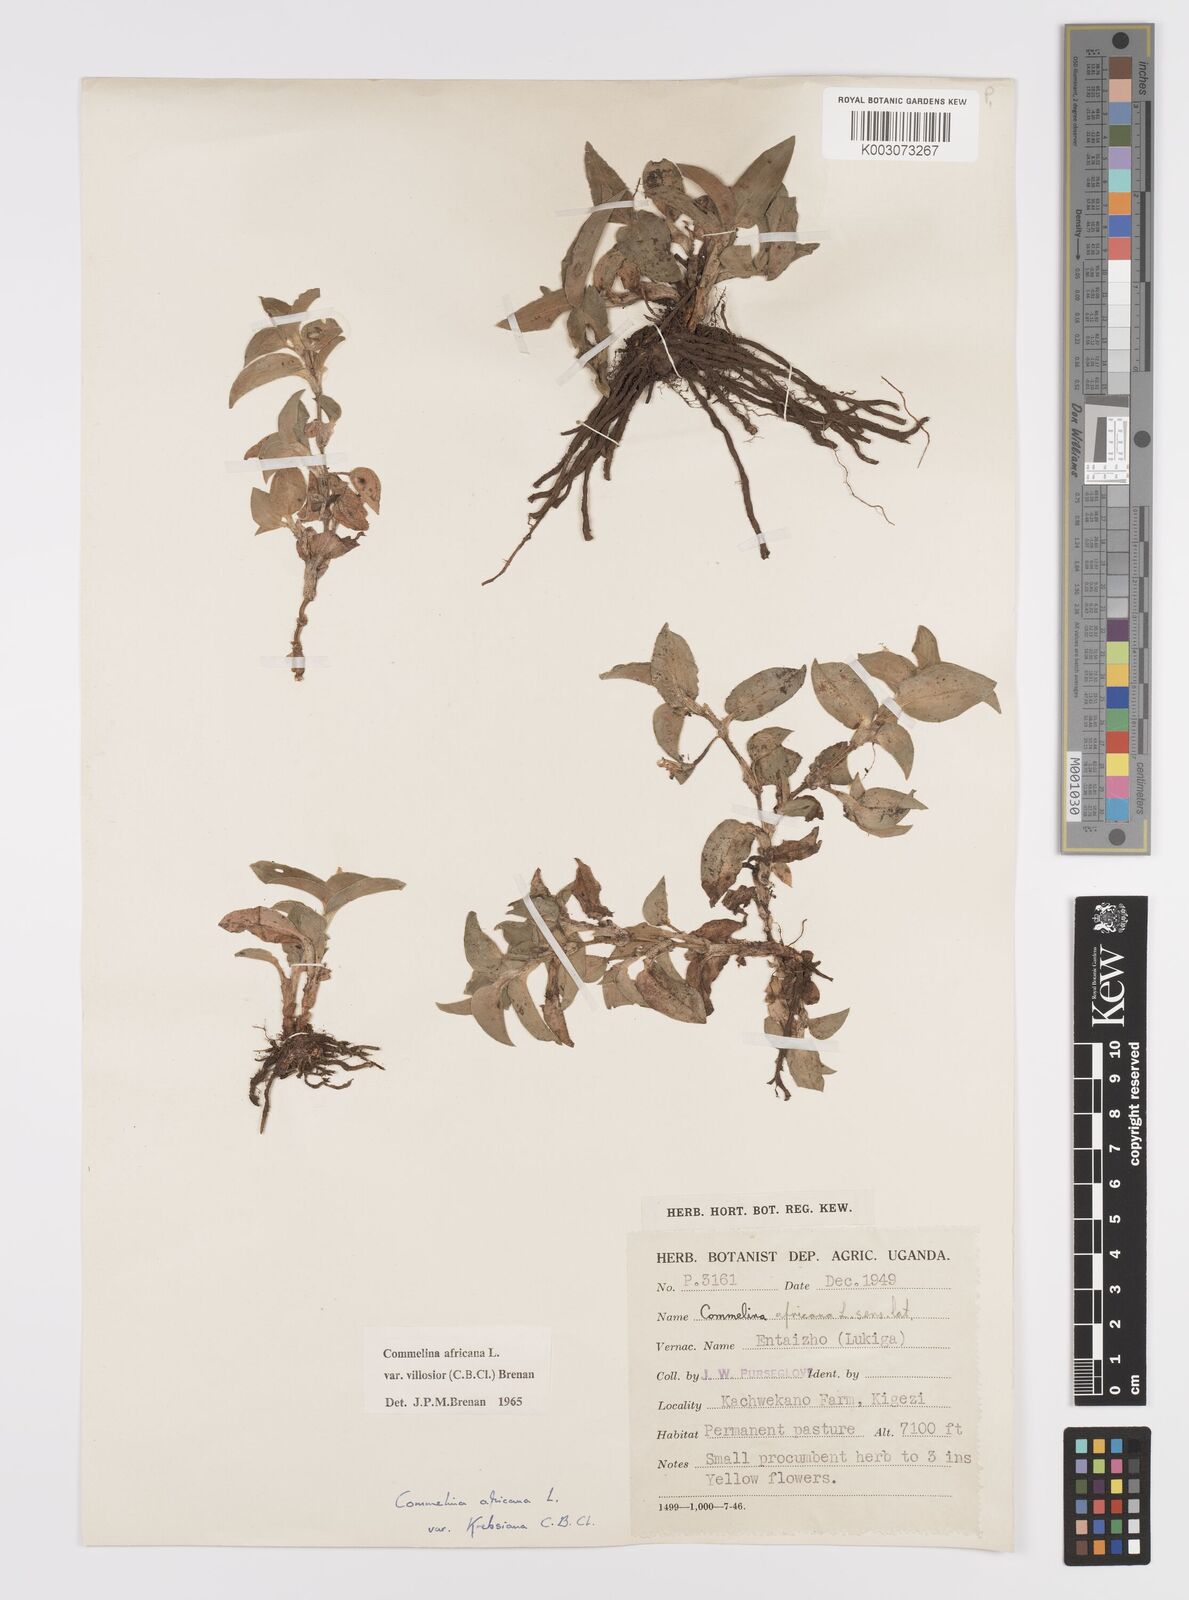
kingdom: Plantae
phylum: Tracheophyta
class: Liliopsida
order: Commelinales
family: Commelinaceae
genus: Commelina
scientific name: Commelina africana
